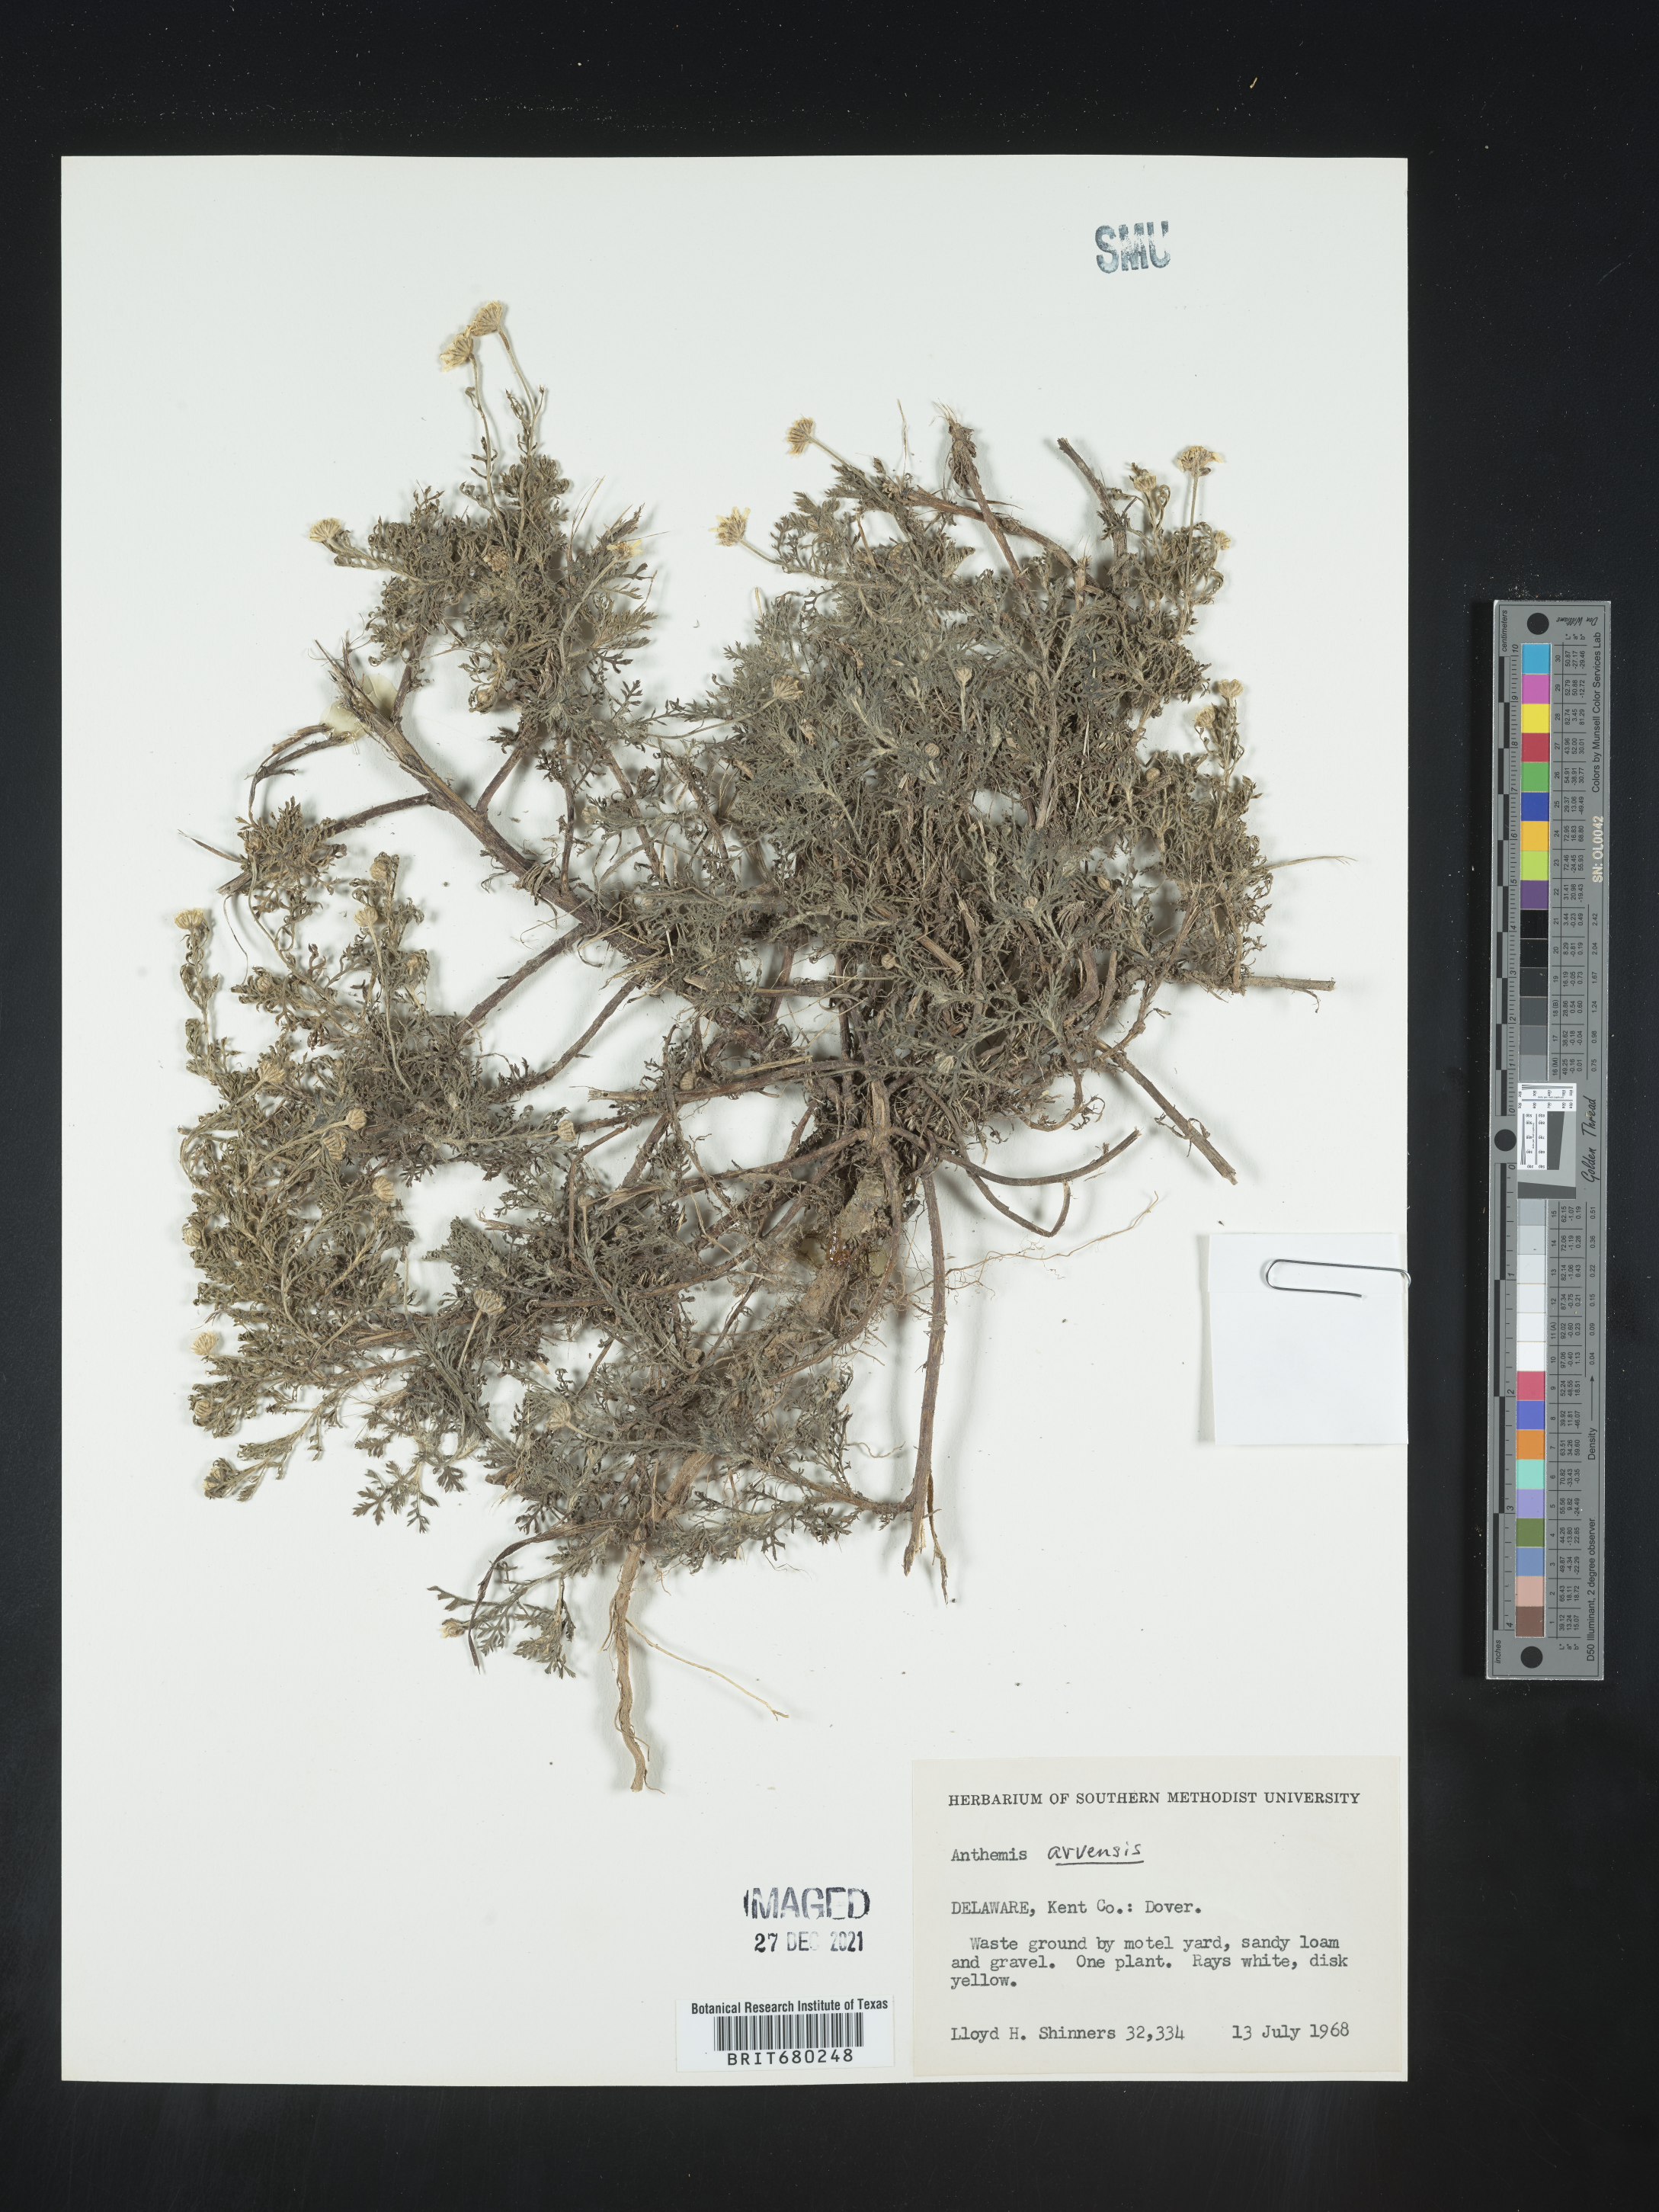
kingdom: Plantae
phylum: Tracheophyta
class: Magnoliopsida
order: Asterales
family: Asteraceae
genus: Anthemis
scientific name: Anthemis arvensis
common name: Corn chamomile
